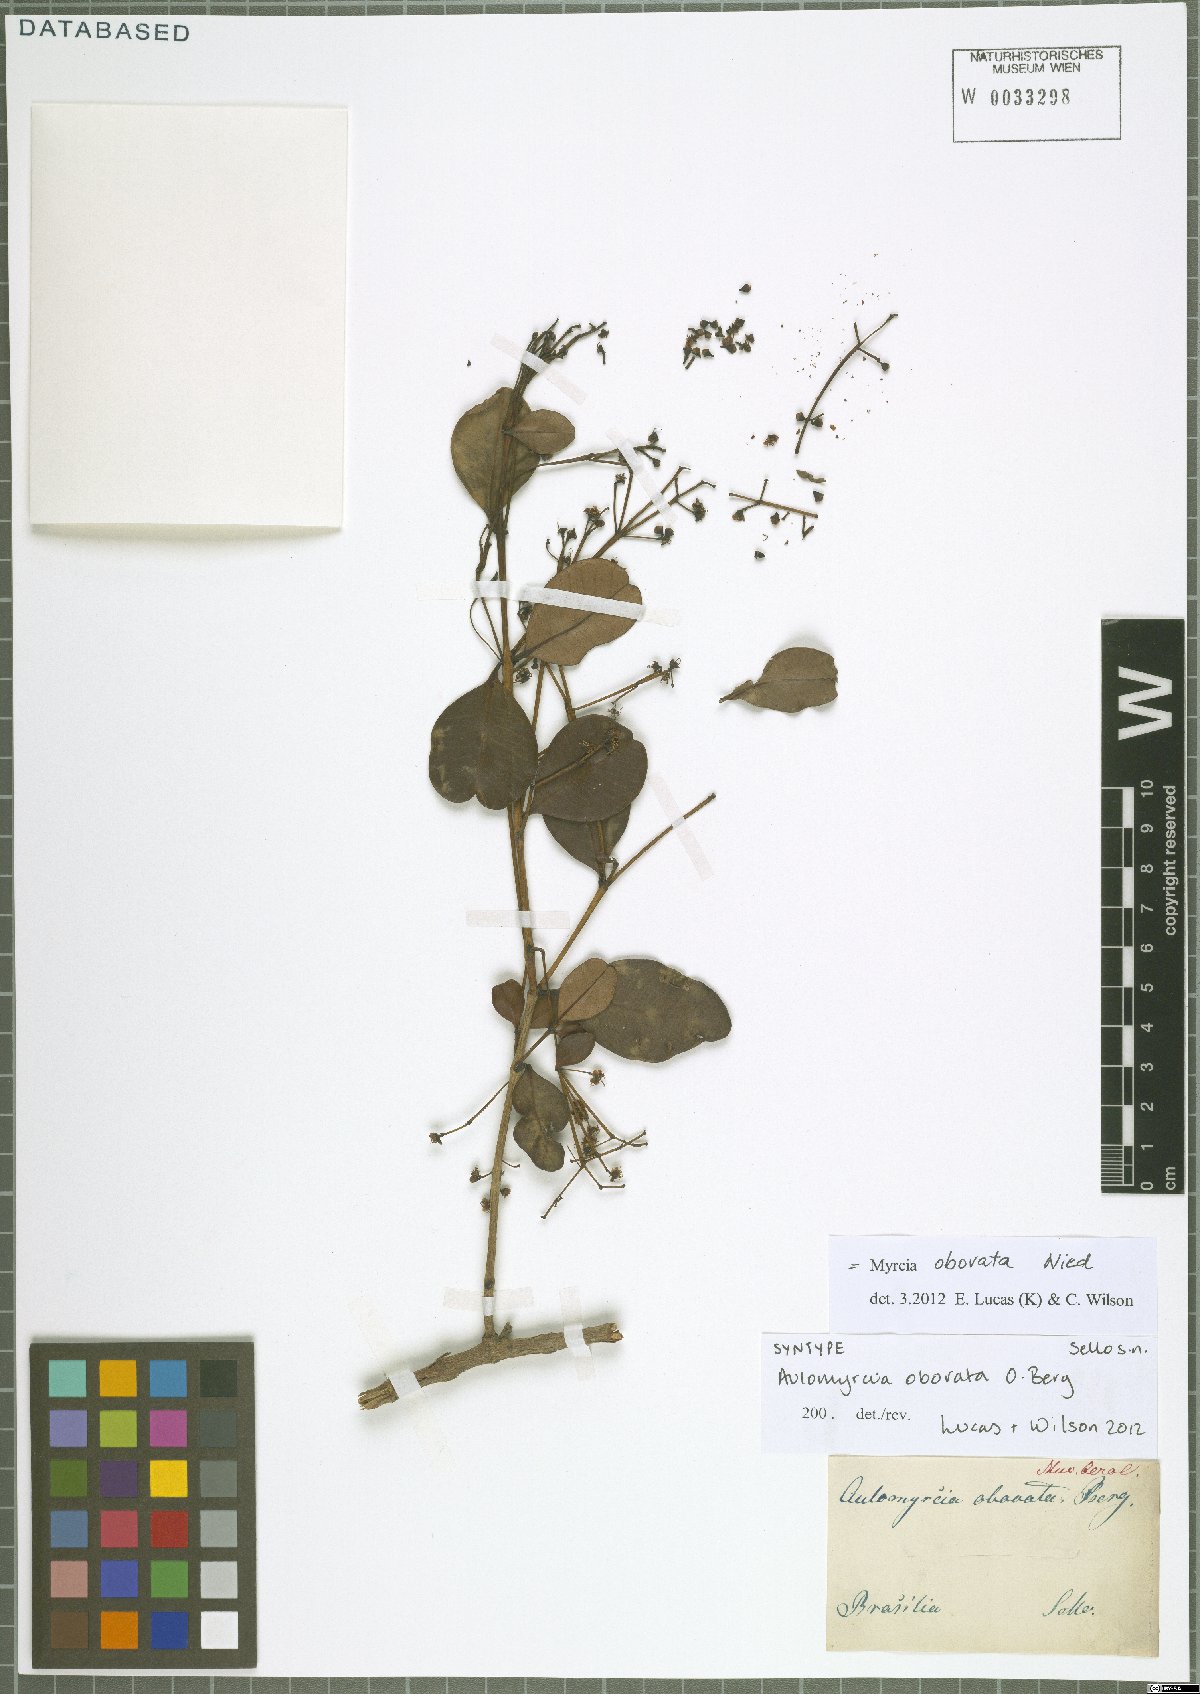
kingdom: Plantae
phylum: Tracheophyta
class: Magnoliopsida
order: Myrtales
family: Myrtaceae
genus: Myrcia
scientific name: Myrcia obovata
